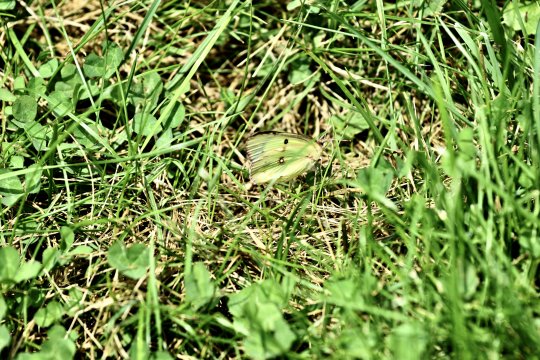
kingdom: Animalia
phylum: Arthropoda
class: Insecta
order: Lepidoptera
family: Pieridae
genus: Colias
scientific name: Colias philodice
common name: Clouded Sulphur
